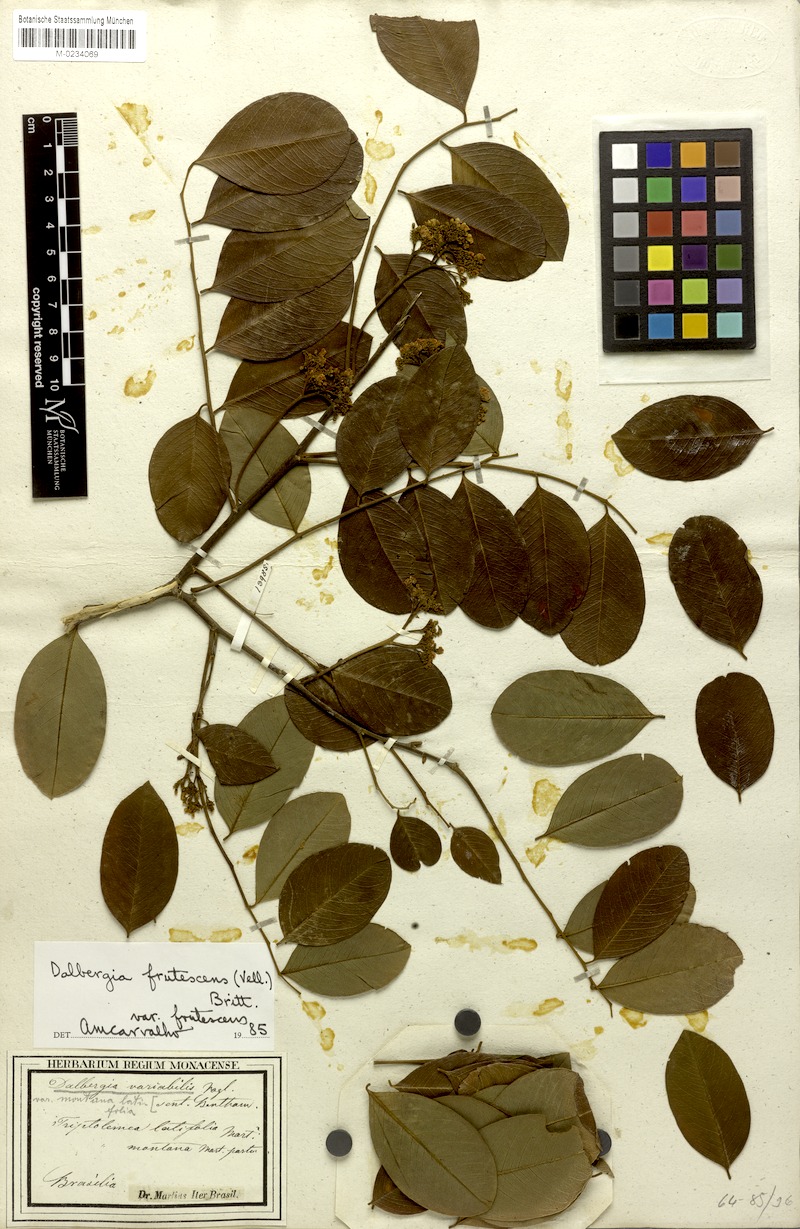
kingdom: Plantae
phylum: Tracheophyta
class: Magnoliopsida
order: Fabales
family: Fabaceae
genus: Dalbergia
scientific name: Dalbergia frutescens
